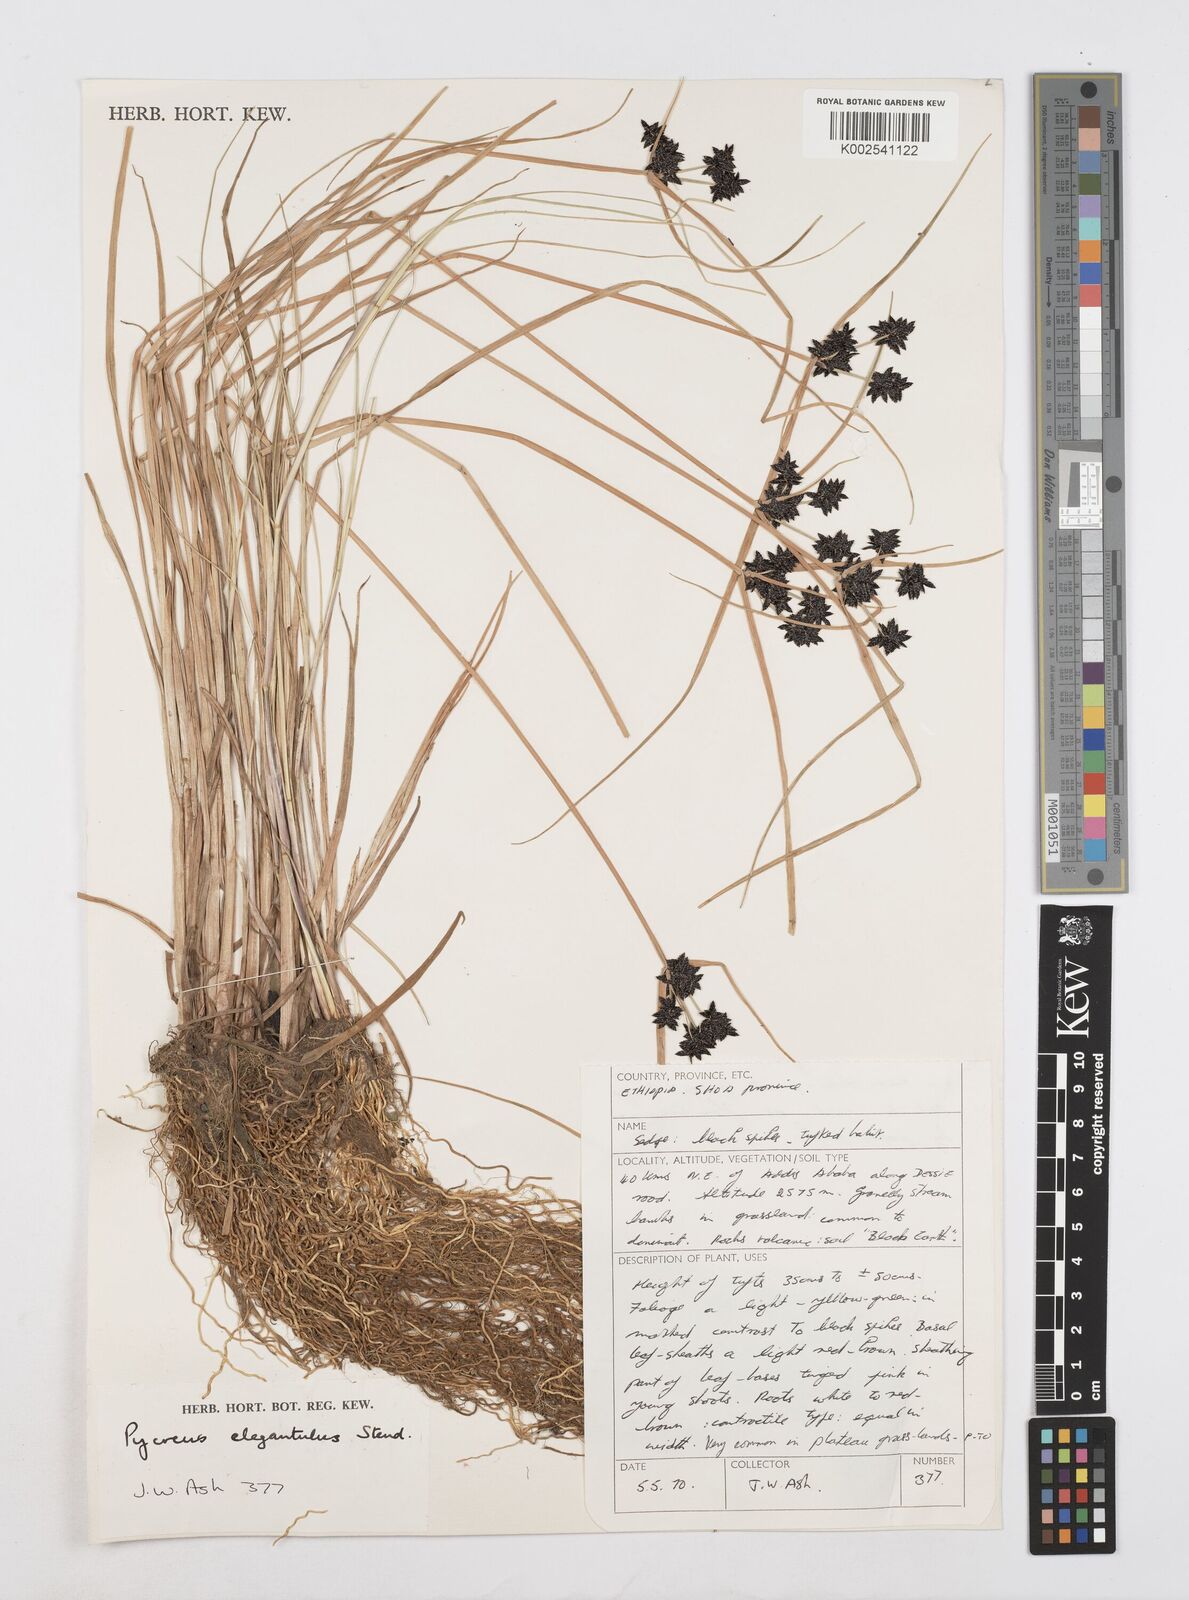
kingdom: Plantae
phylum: Tracheophyta
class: Liliopsida
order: Poales
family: Cyperaceae
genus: Cyperus
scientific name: Cyperus elegantulus
